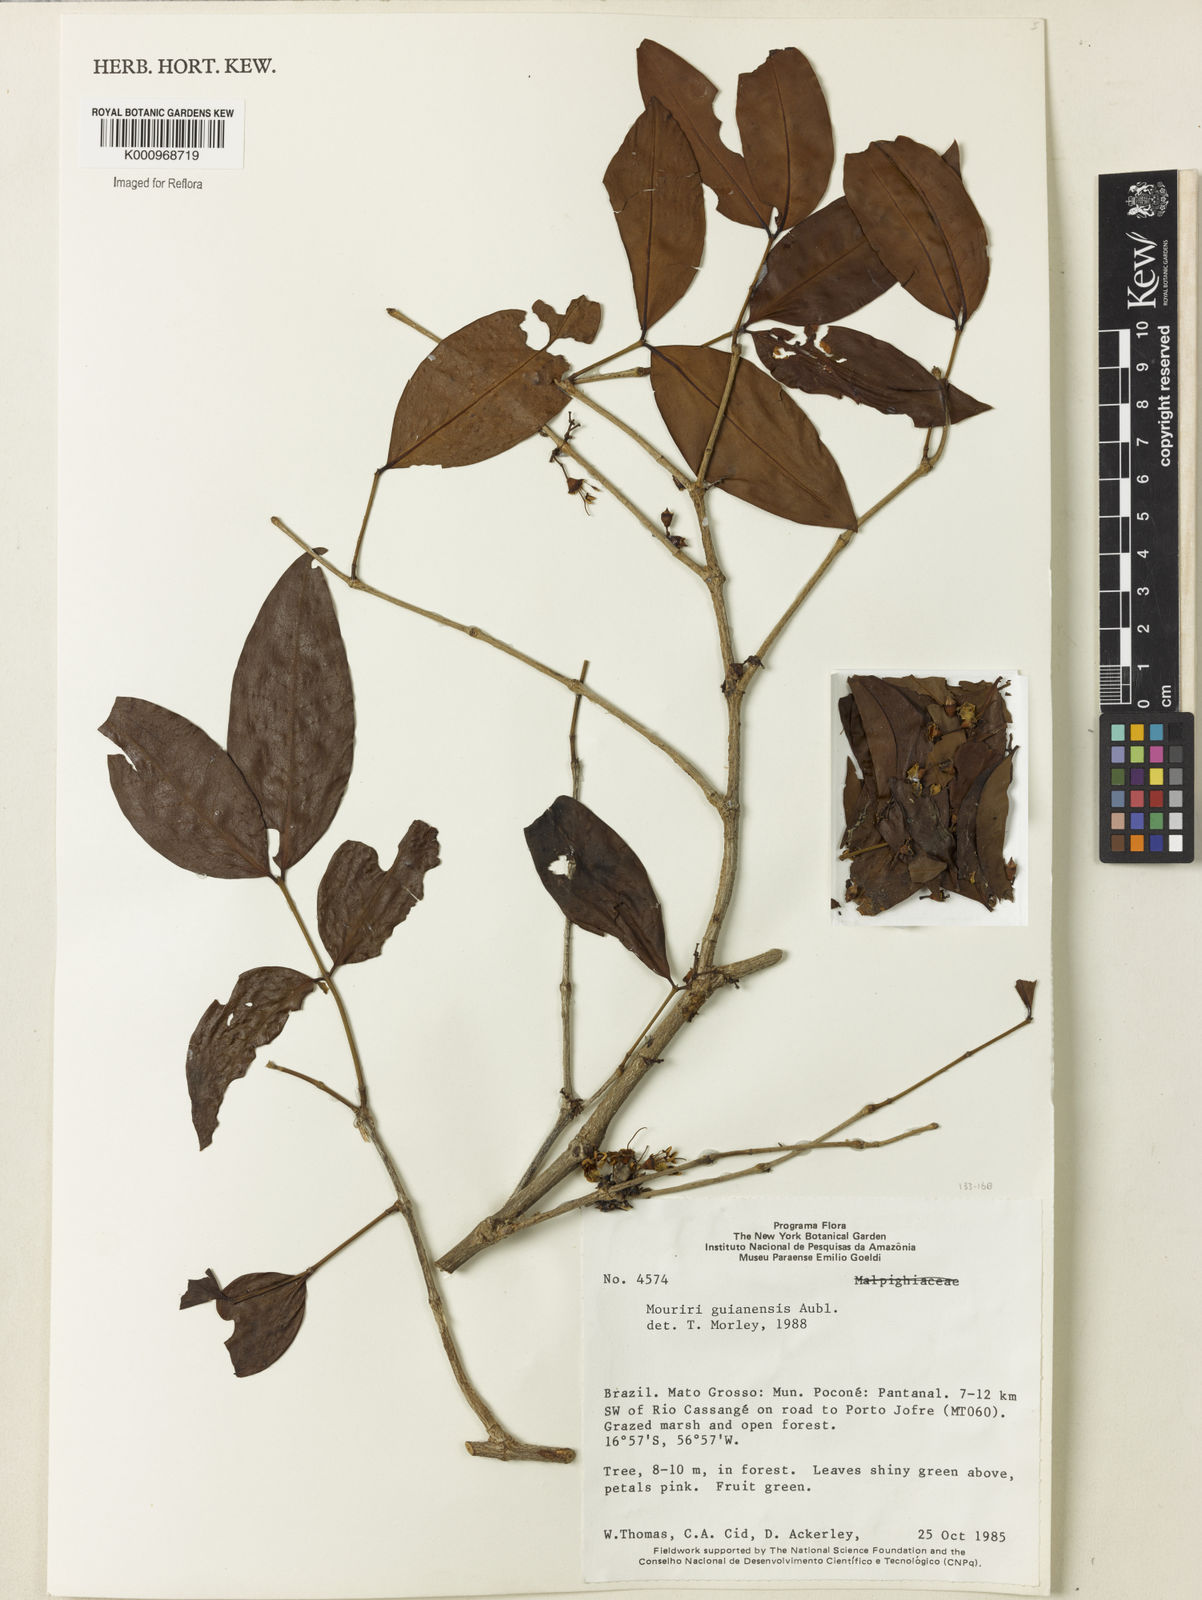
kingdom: Plantae
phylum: Tracheophyta
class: Magnoliopsida
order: Myrtales
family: Melastomataceae
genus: Mouriri
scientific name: Mouriri guianensis
